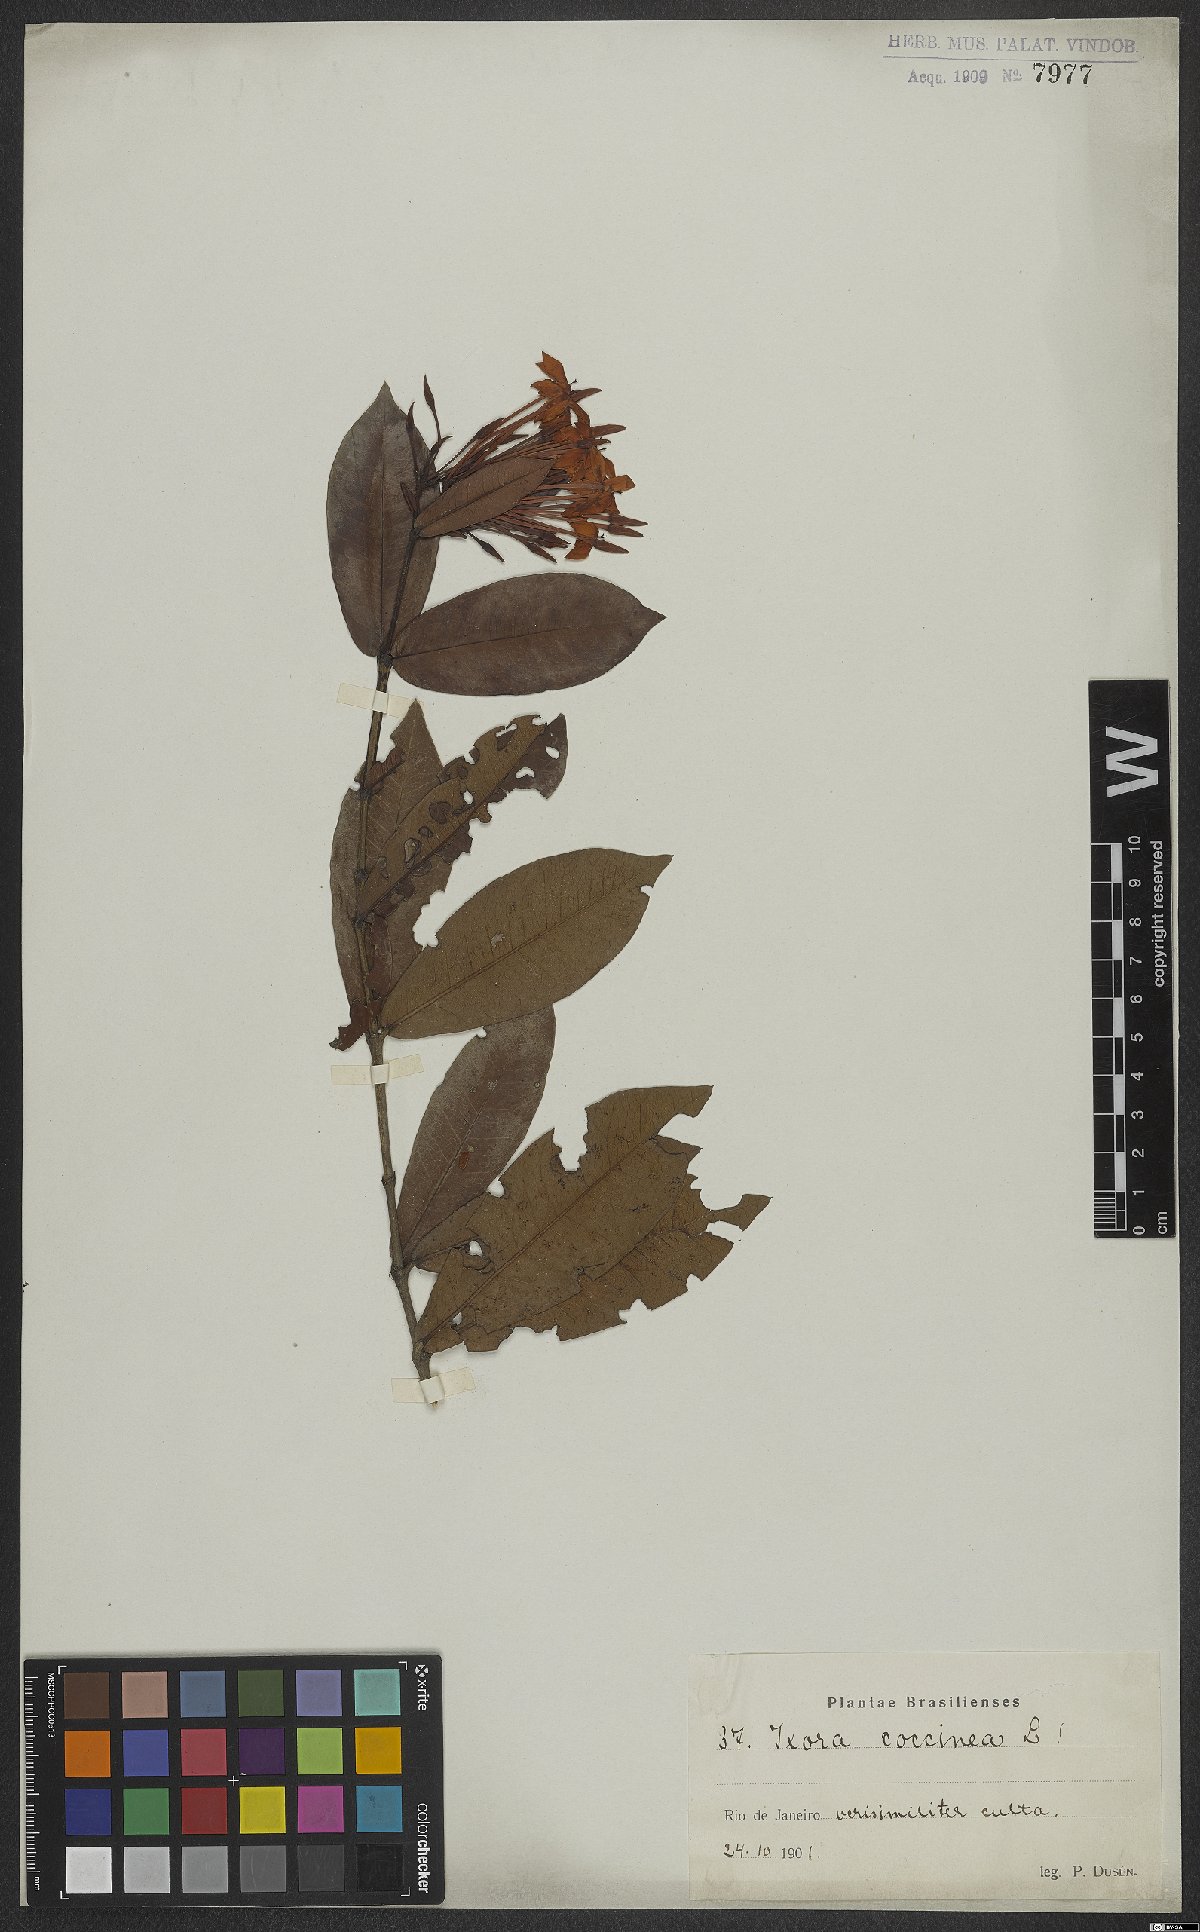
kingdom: Plantae
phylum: Tracheophyta
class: Magnoliopsida
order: Gentianales
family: Rubiaceae
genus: Ixora
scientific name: Ixora coccinea
